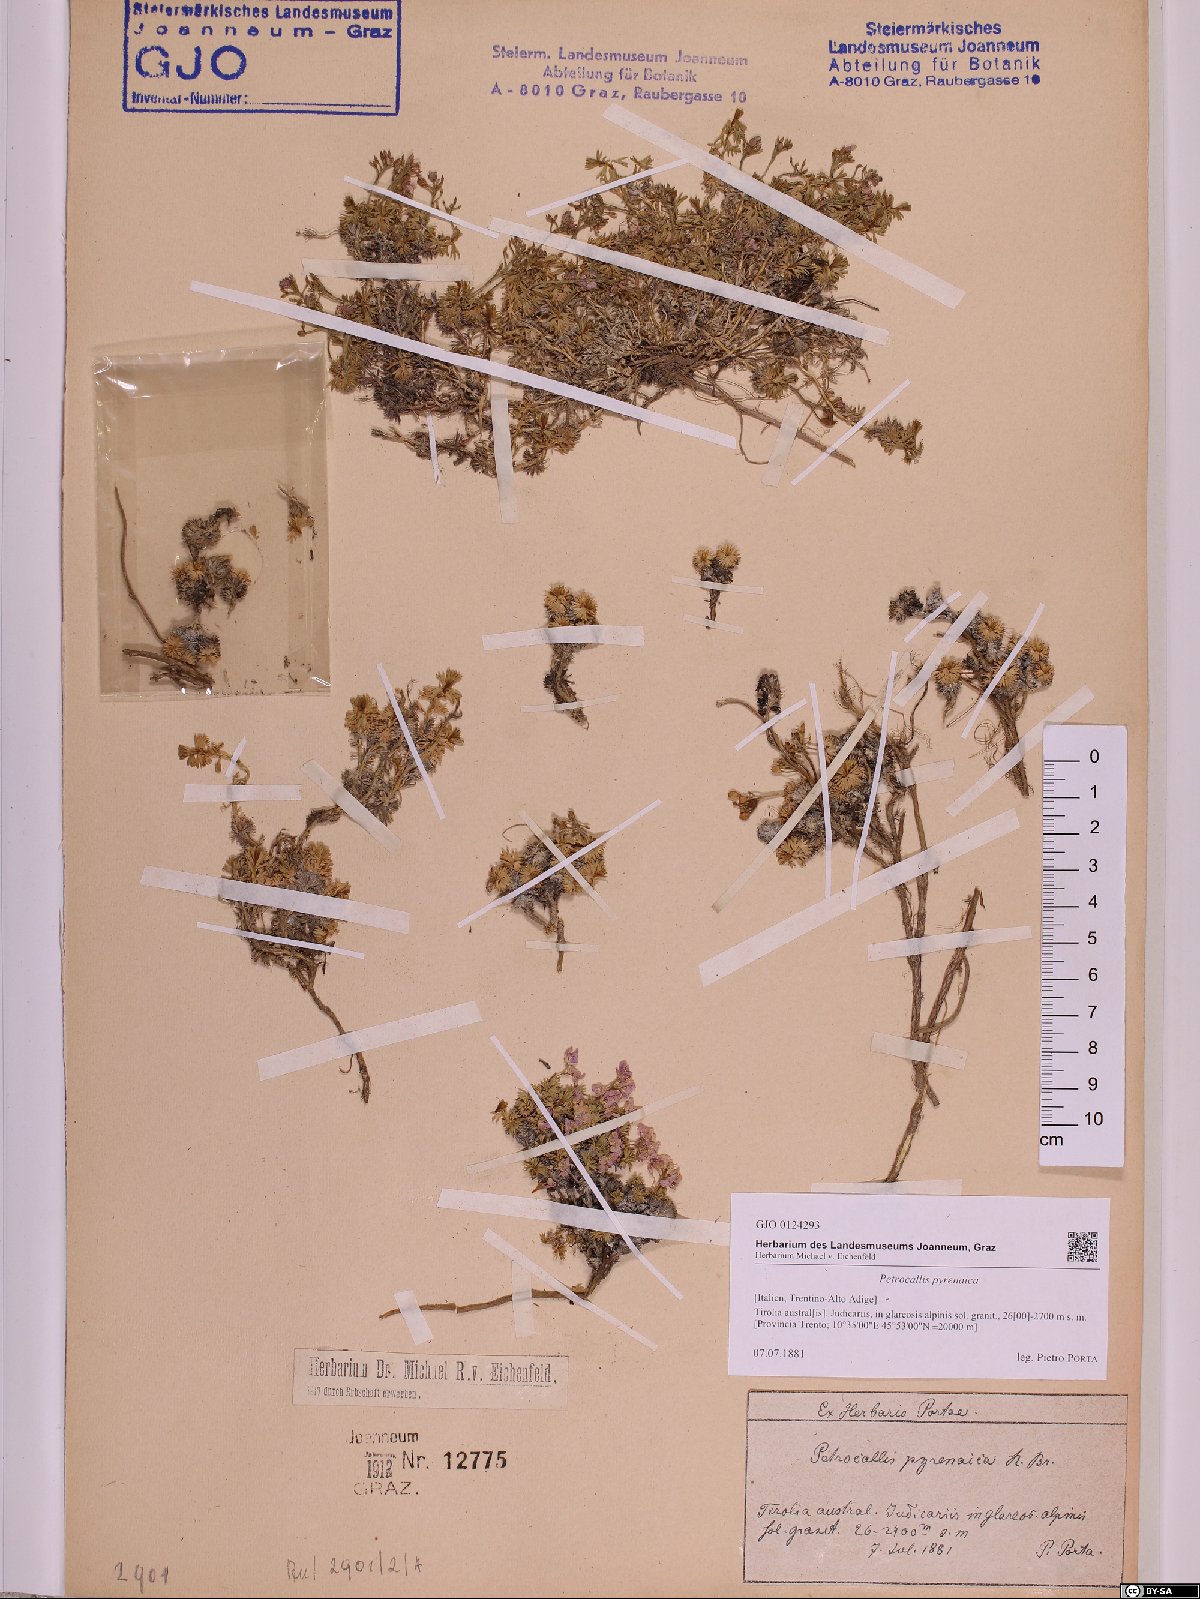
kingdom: Plantae
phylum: Tracheophyta
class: Magnoliopsida
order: Brassicales
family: Brassicaceae
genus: Petrocallis
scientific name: Petrocallis pyrenaica
